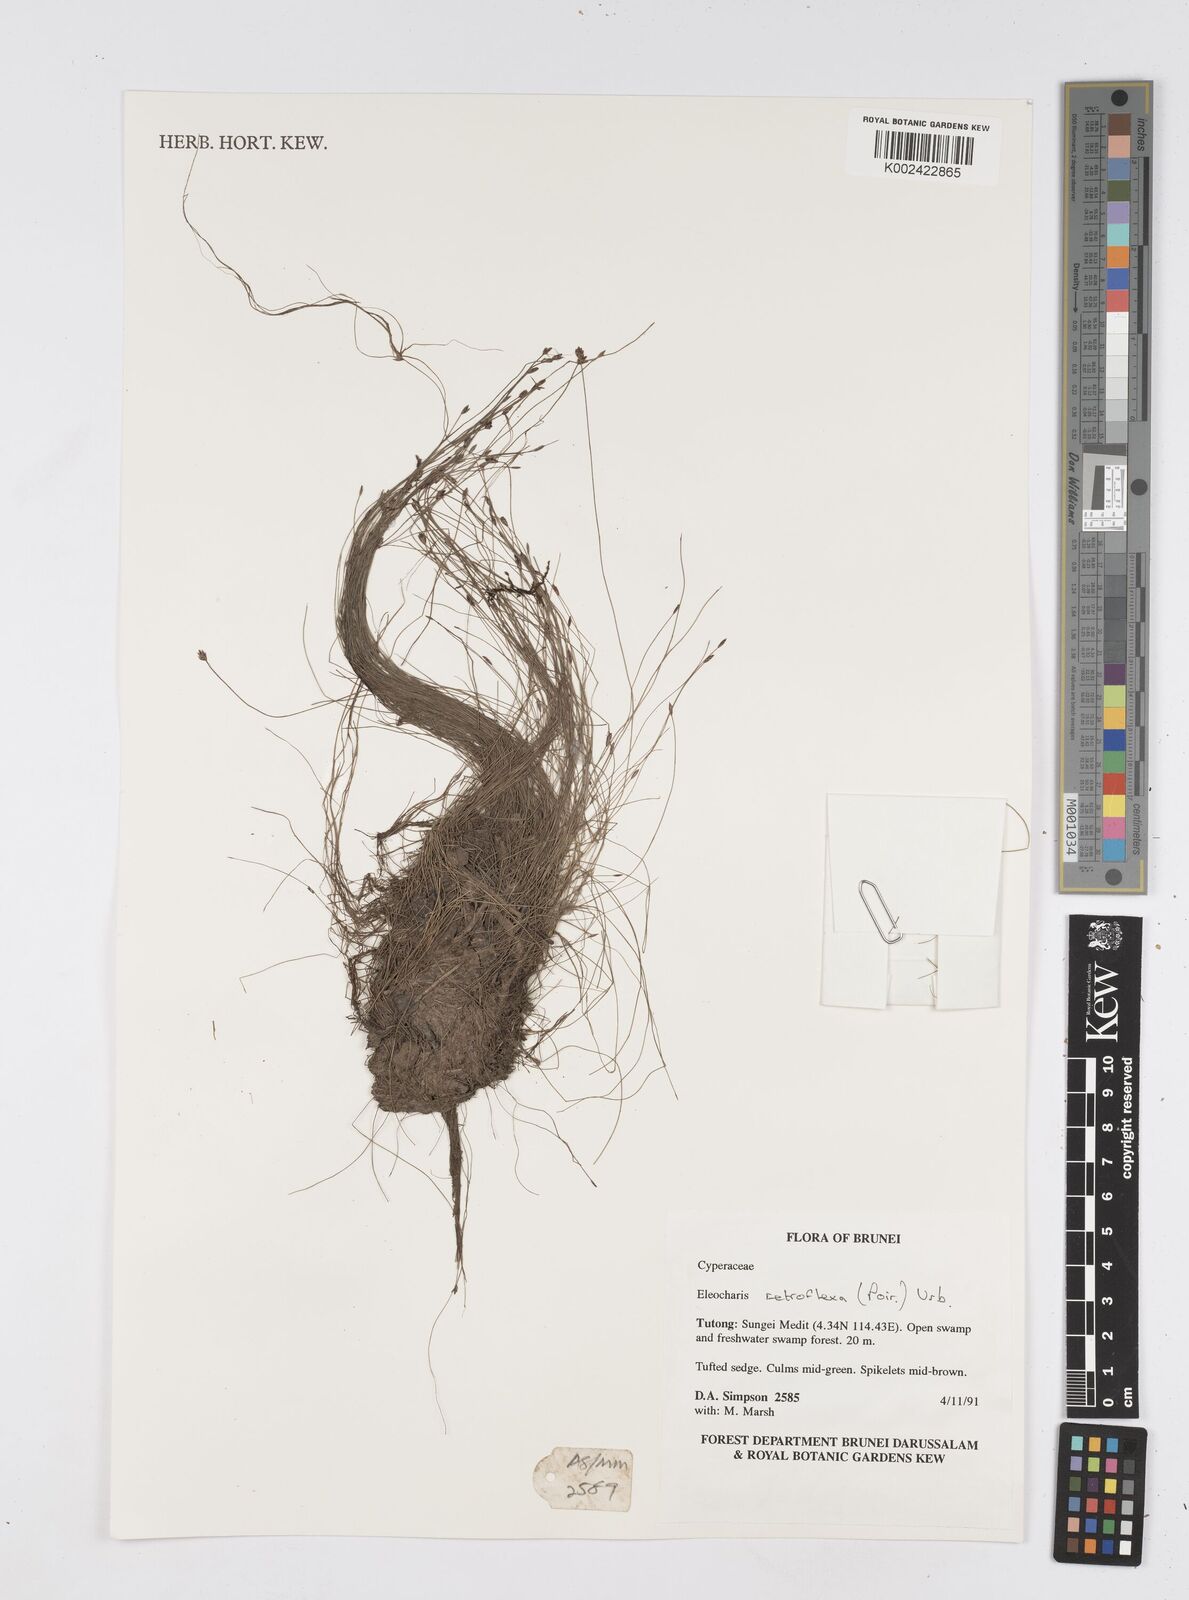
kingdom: Plantae
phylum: Tracheophyta
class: Liliopsida
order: Poales
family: Cyperaceae
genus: Eleocharis
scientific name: Eleocharis retroflexa
